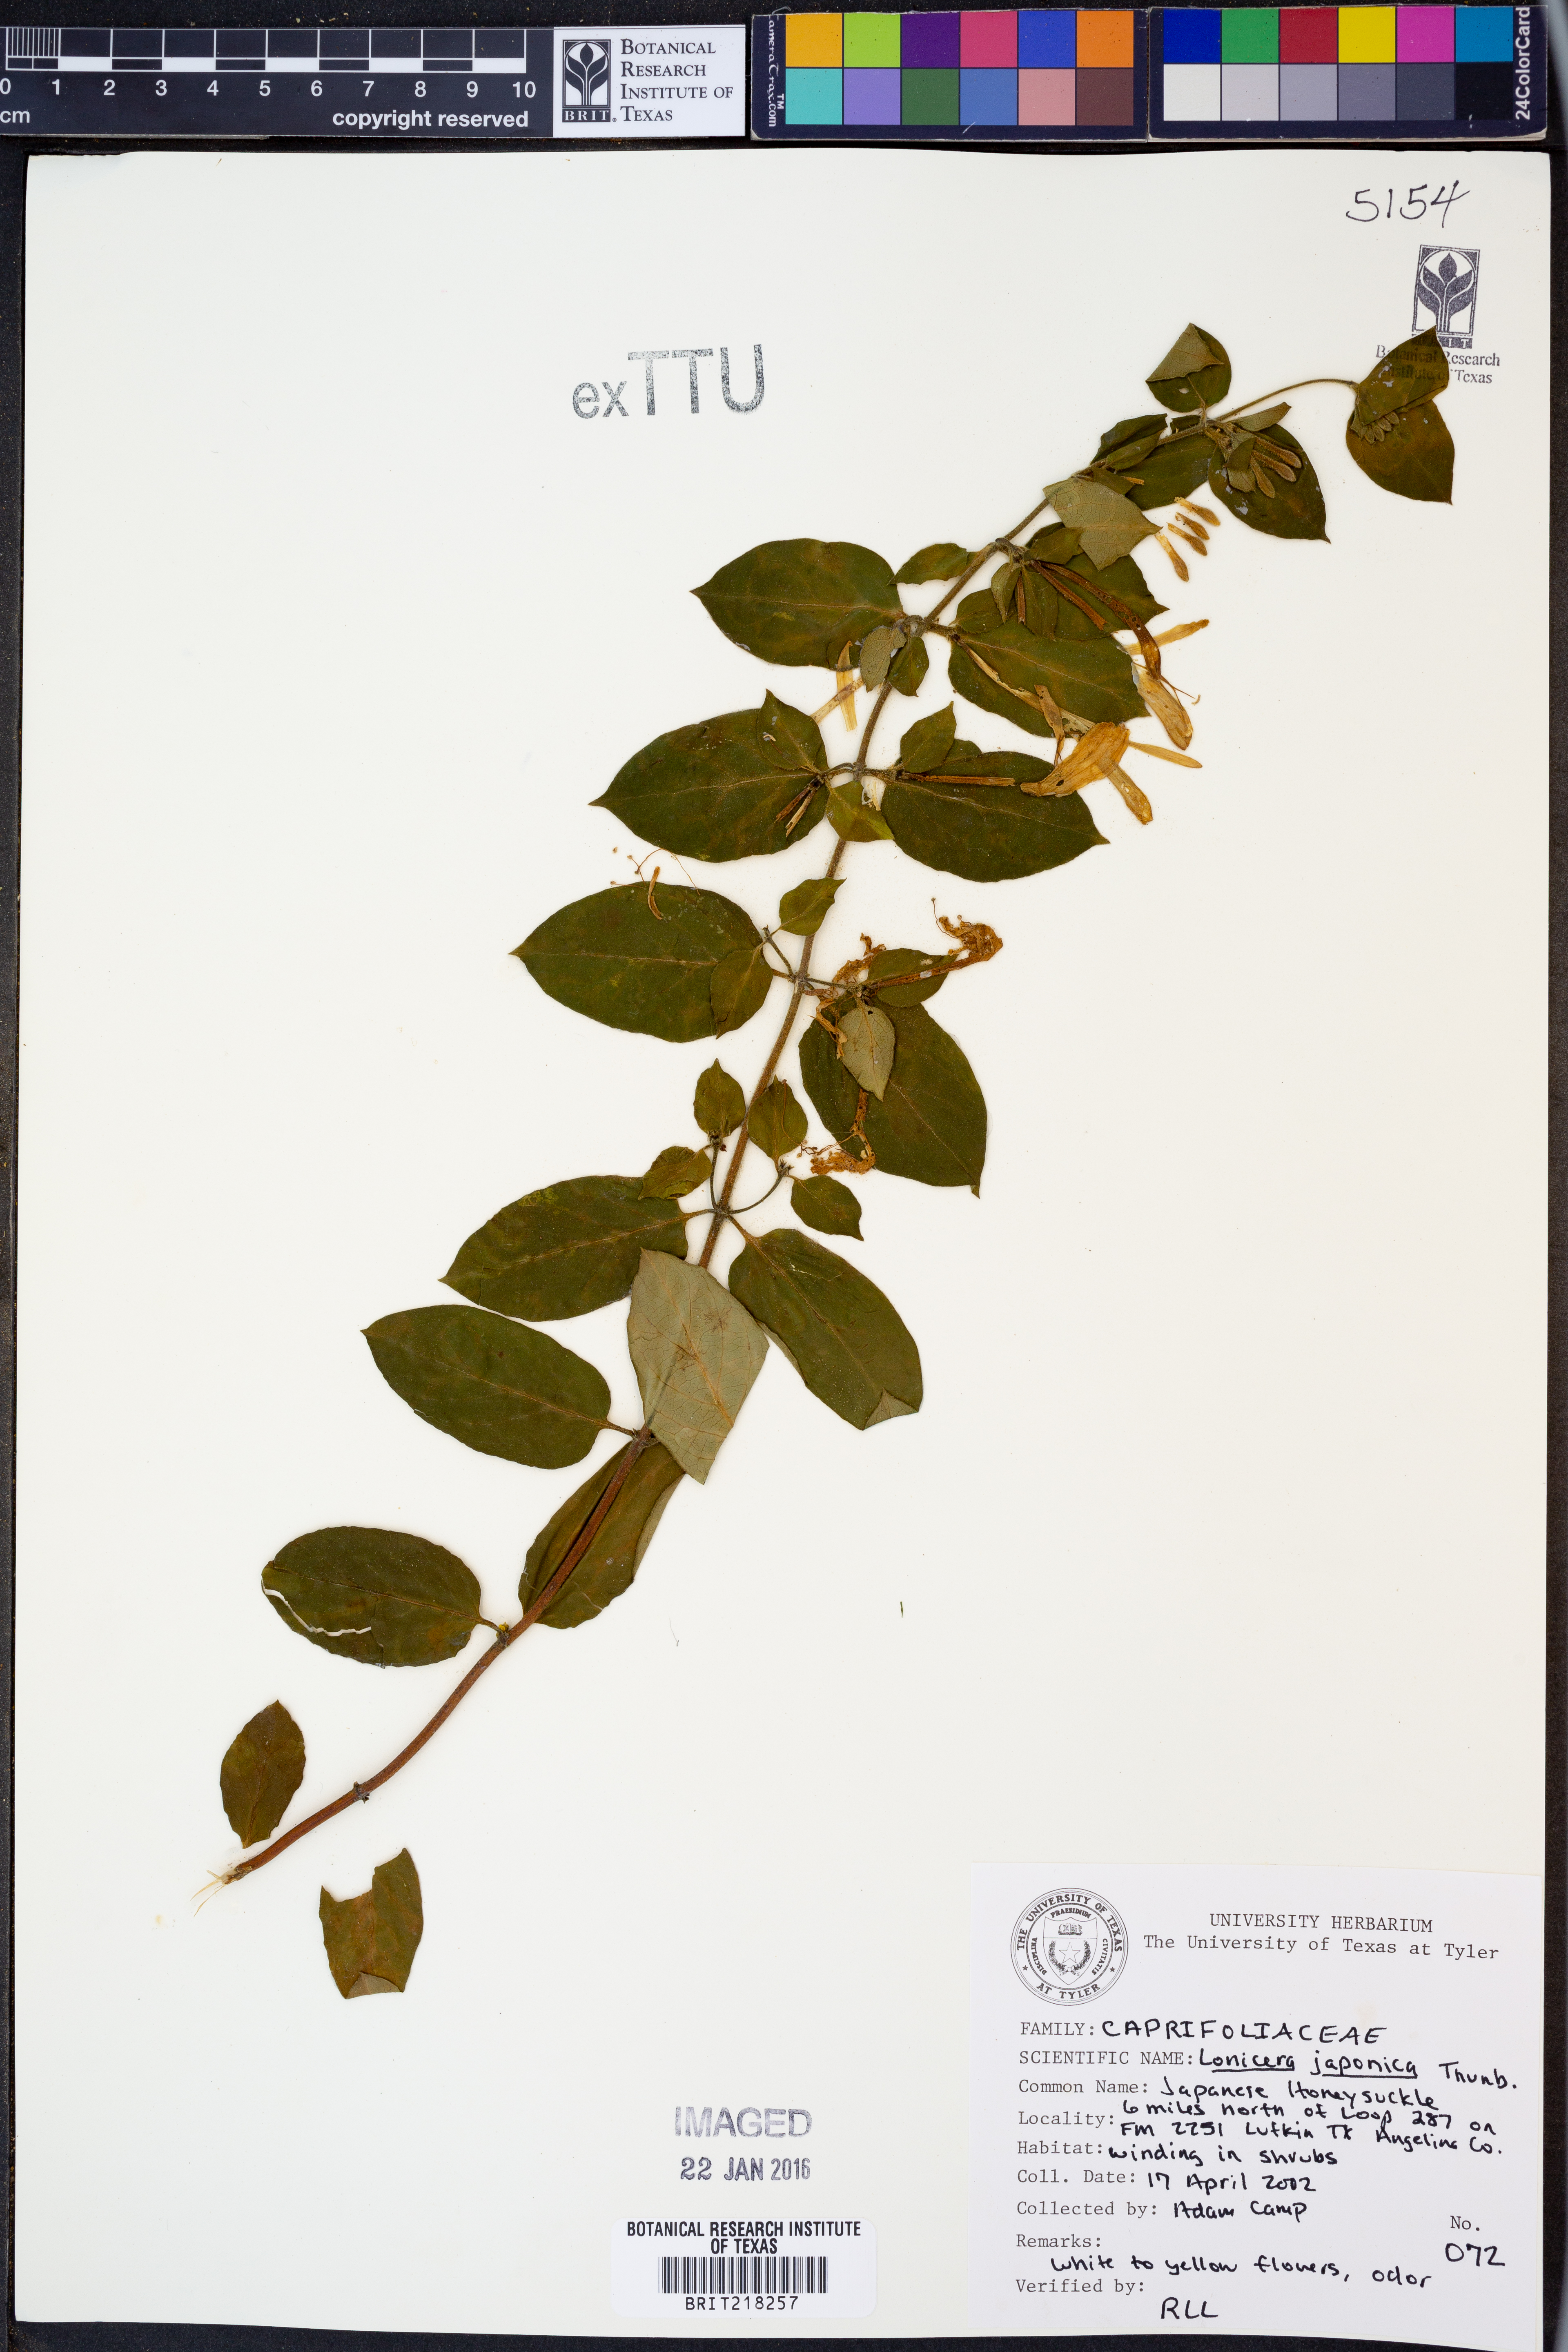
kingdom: Plantae
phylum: Tracheophyta
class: Magnoliopsida
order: Dipsacales
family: Caprifoliaceae
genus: Lonicera
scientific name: Lonicera japonica
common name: Japanese honeysuckle
